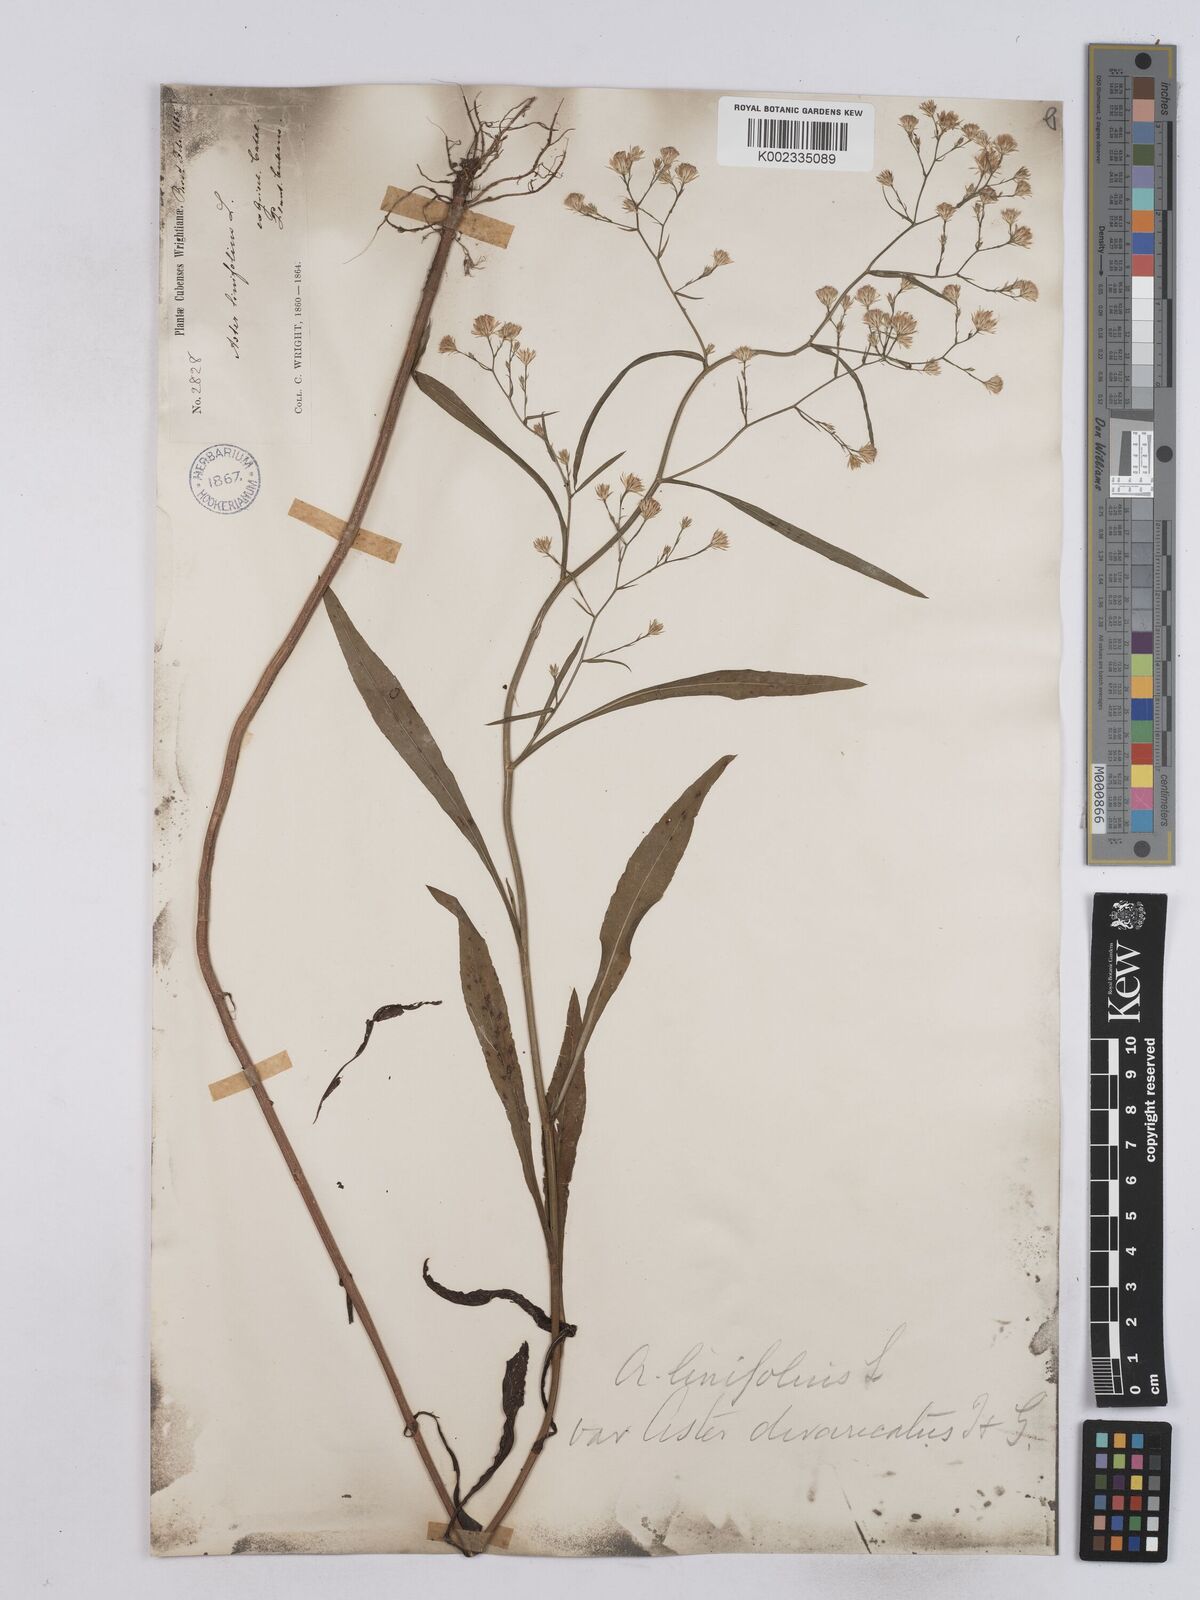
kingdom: Plantae
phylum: Tracheophyta
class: Magnoliopsida
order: Asterales
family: Asteraceae
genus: Symphyotrichum
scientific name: Symphyotrichum expansum
